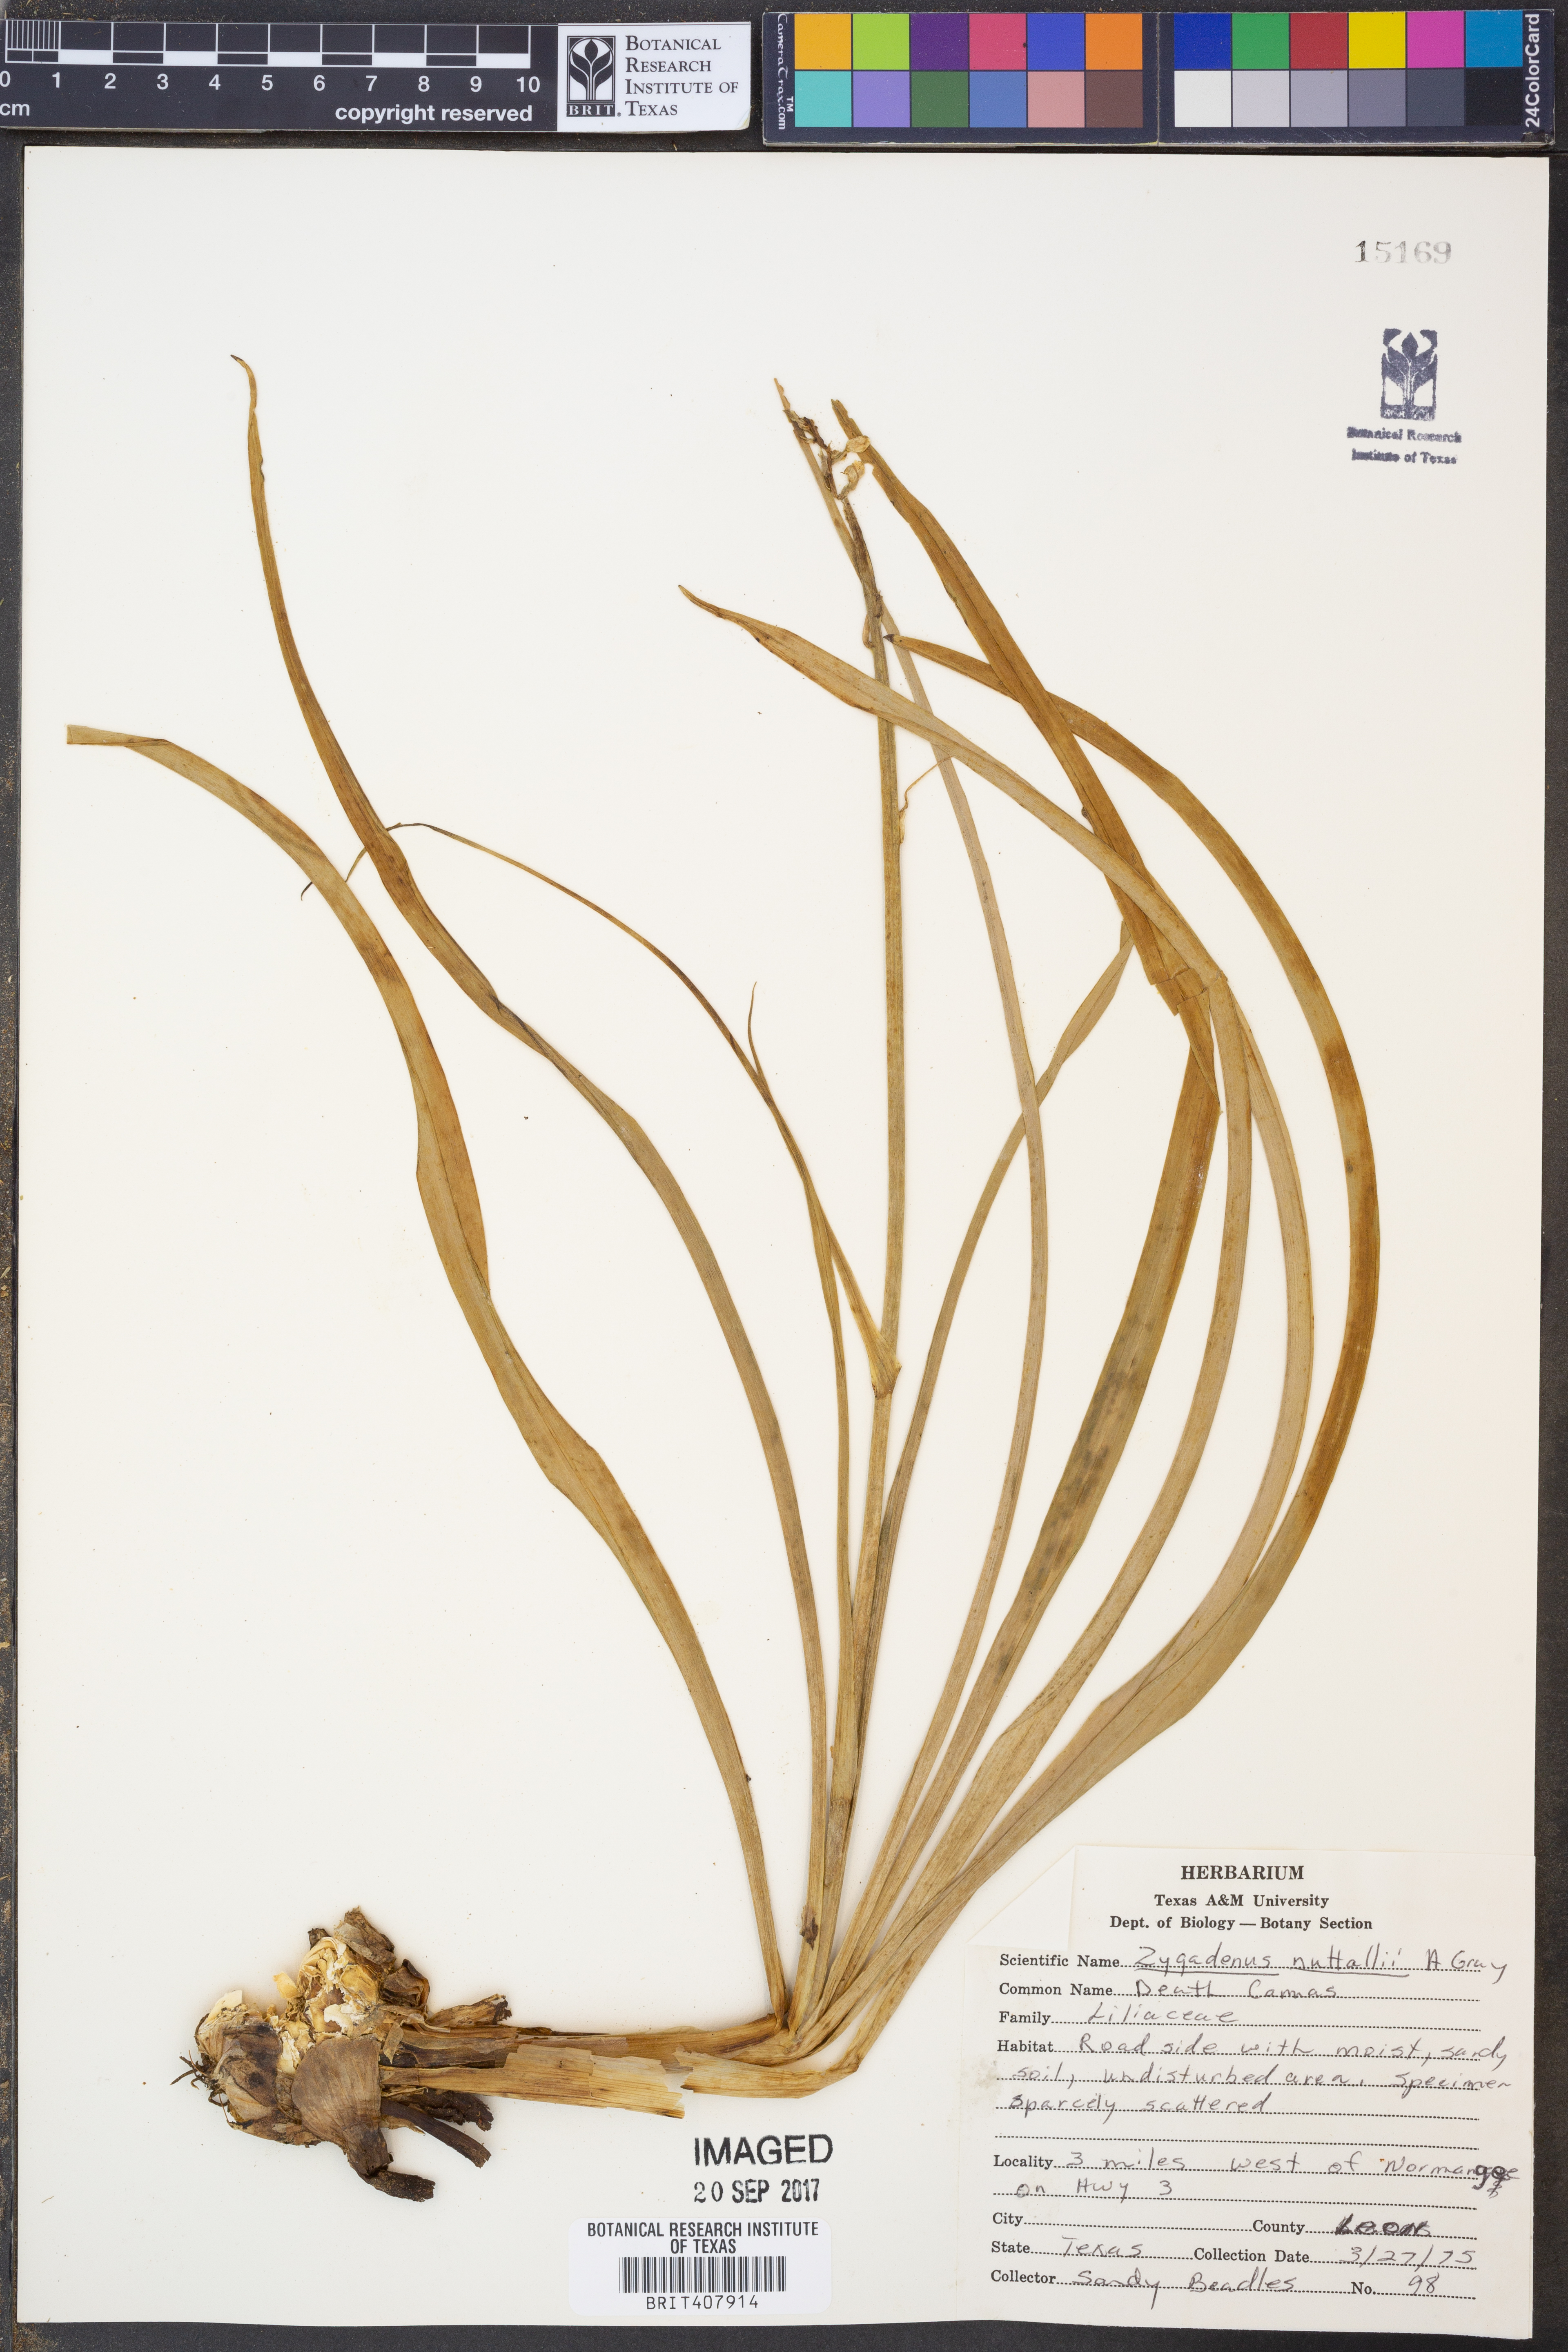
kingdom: Plantae
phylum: Tracheophyta
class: Liliopsida
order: Liliales
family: Melanthiaceae
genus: Toxicoscordion
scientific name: Toxicoscordion nuttallii
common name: Poison sego
